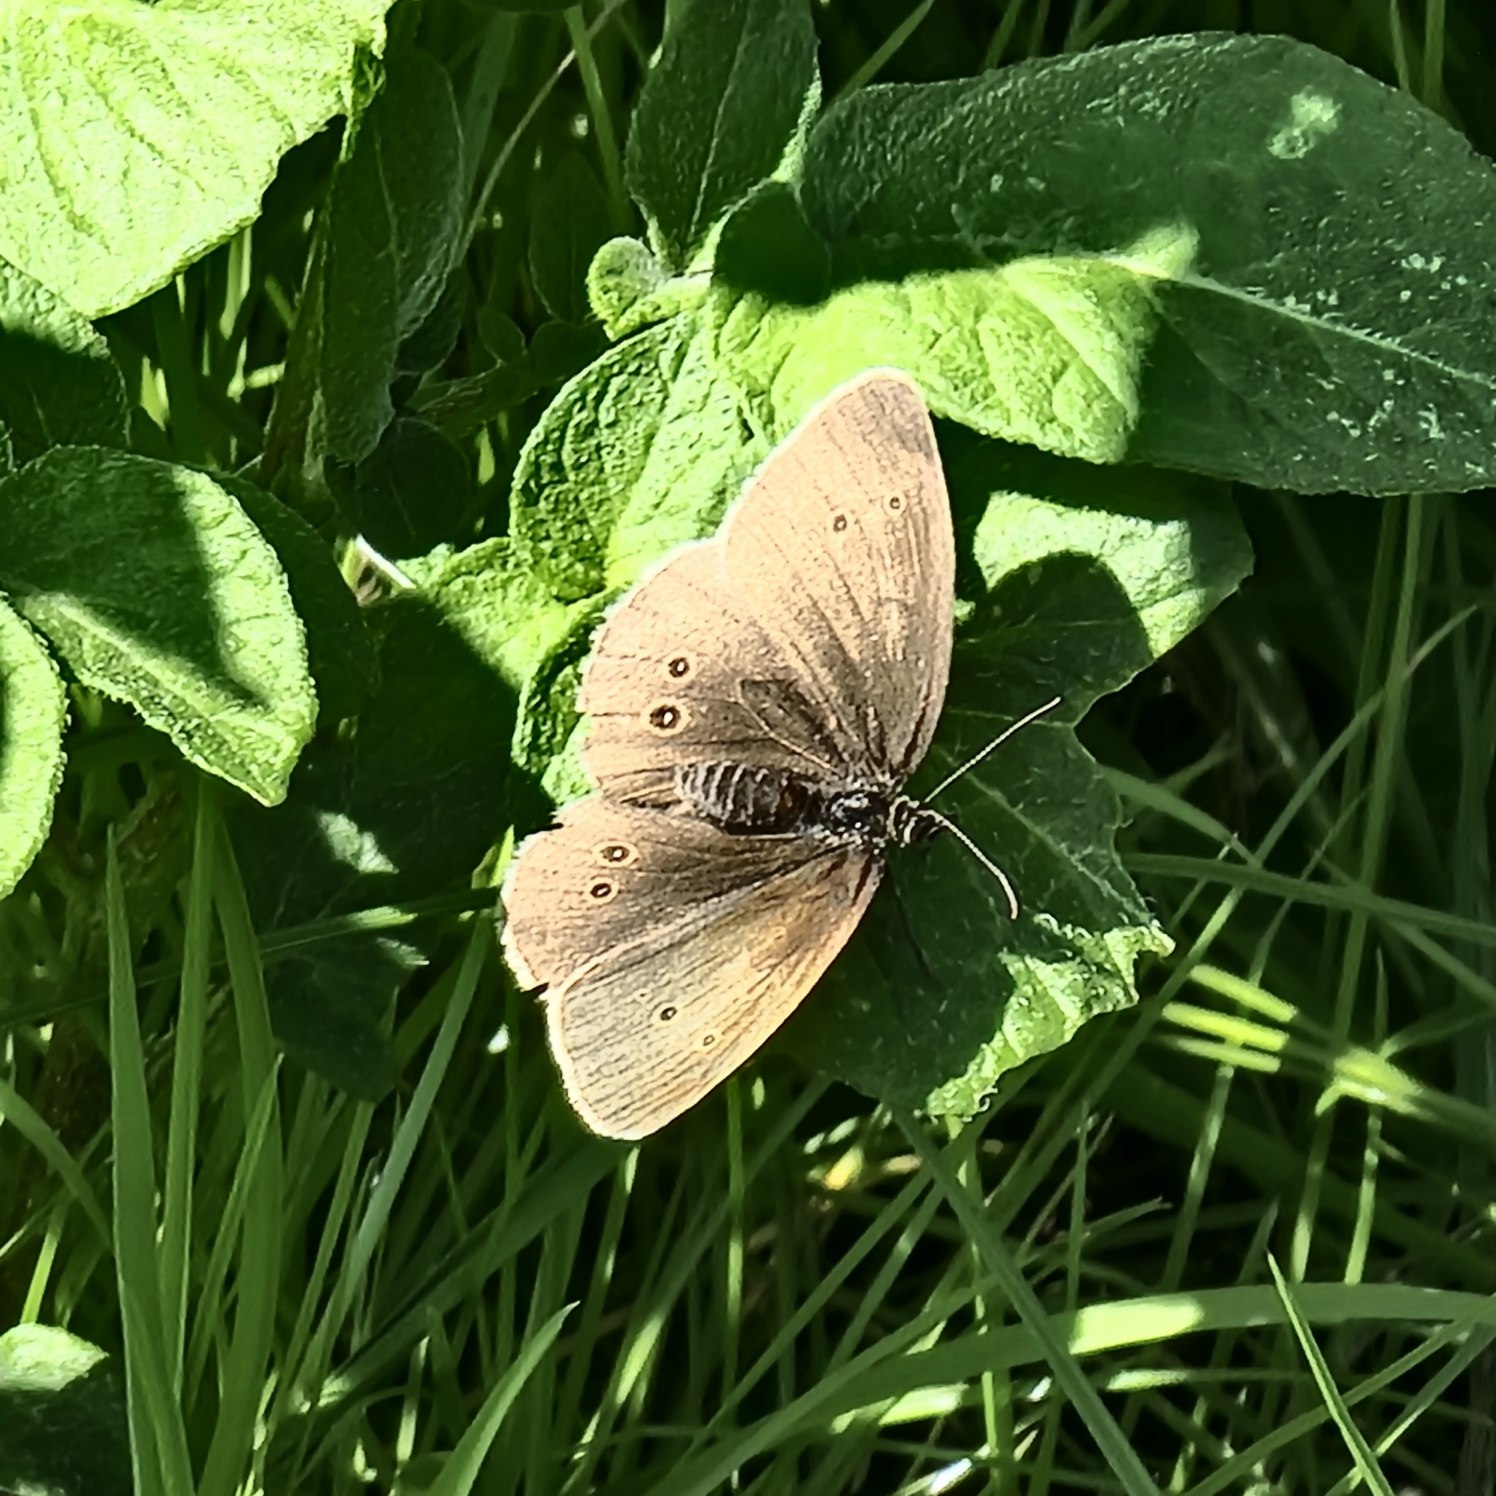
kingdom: Animalia
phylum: Arthropoda
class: Insecta
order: Lepidoptera
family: Nymphalidae
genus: Aphantopus
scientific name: Aphantopus hyperantus
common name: Engrandøje
